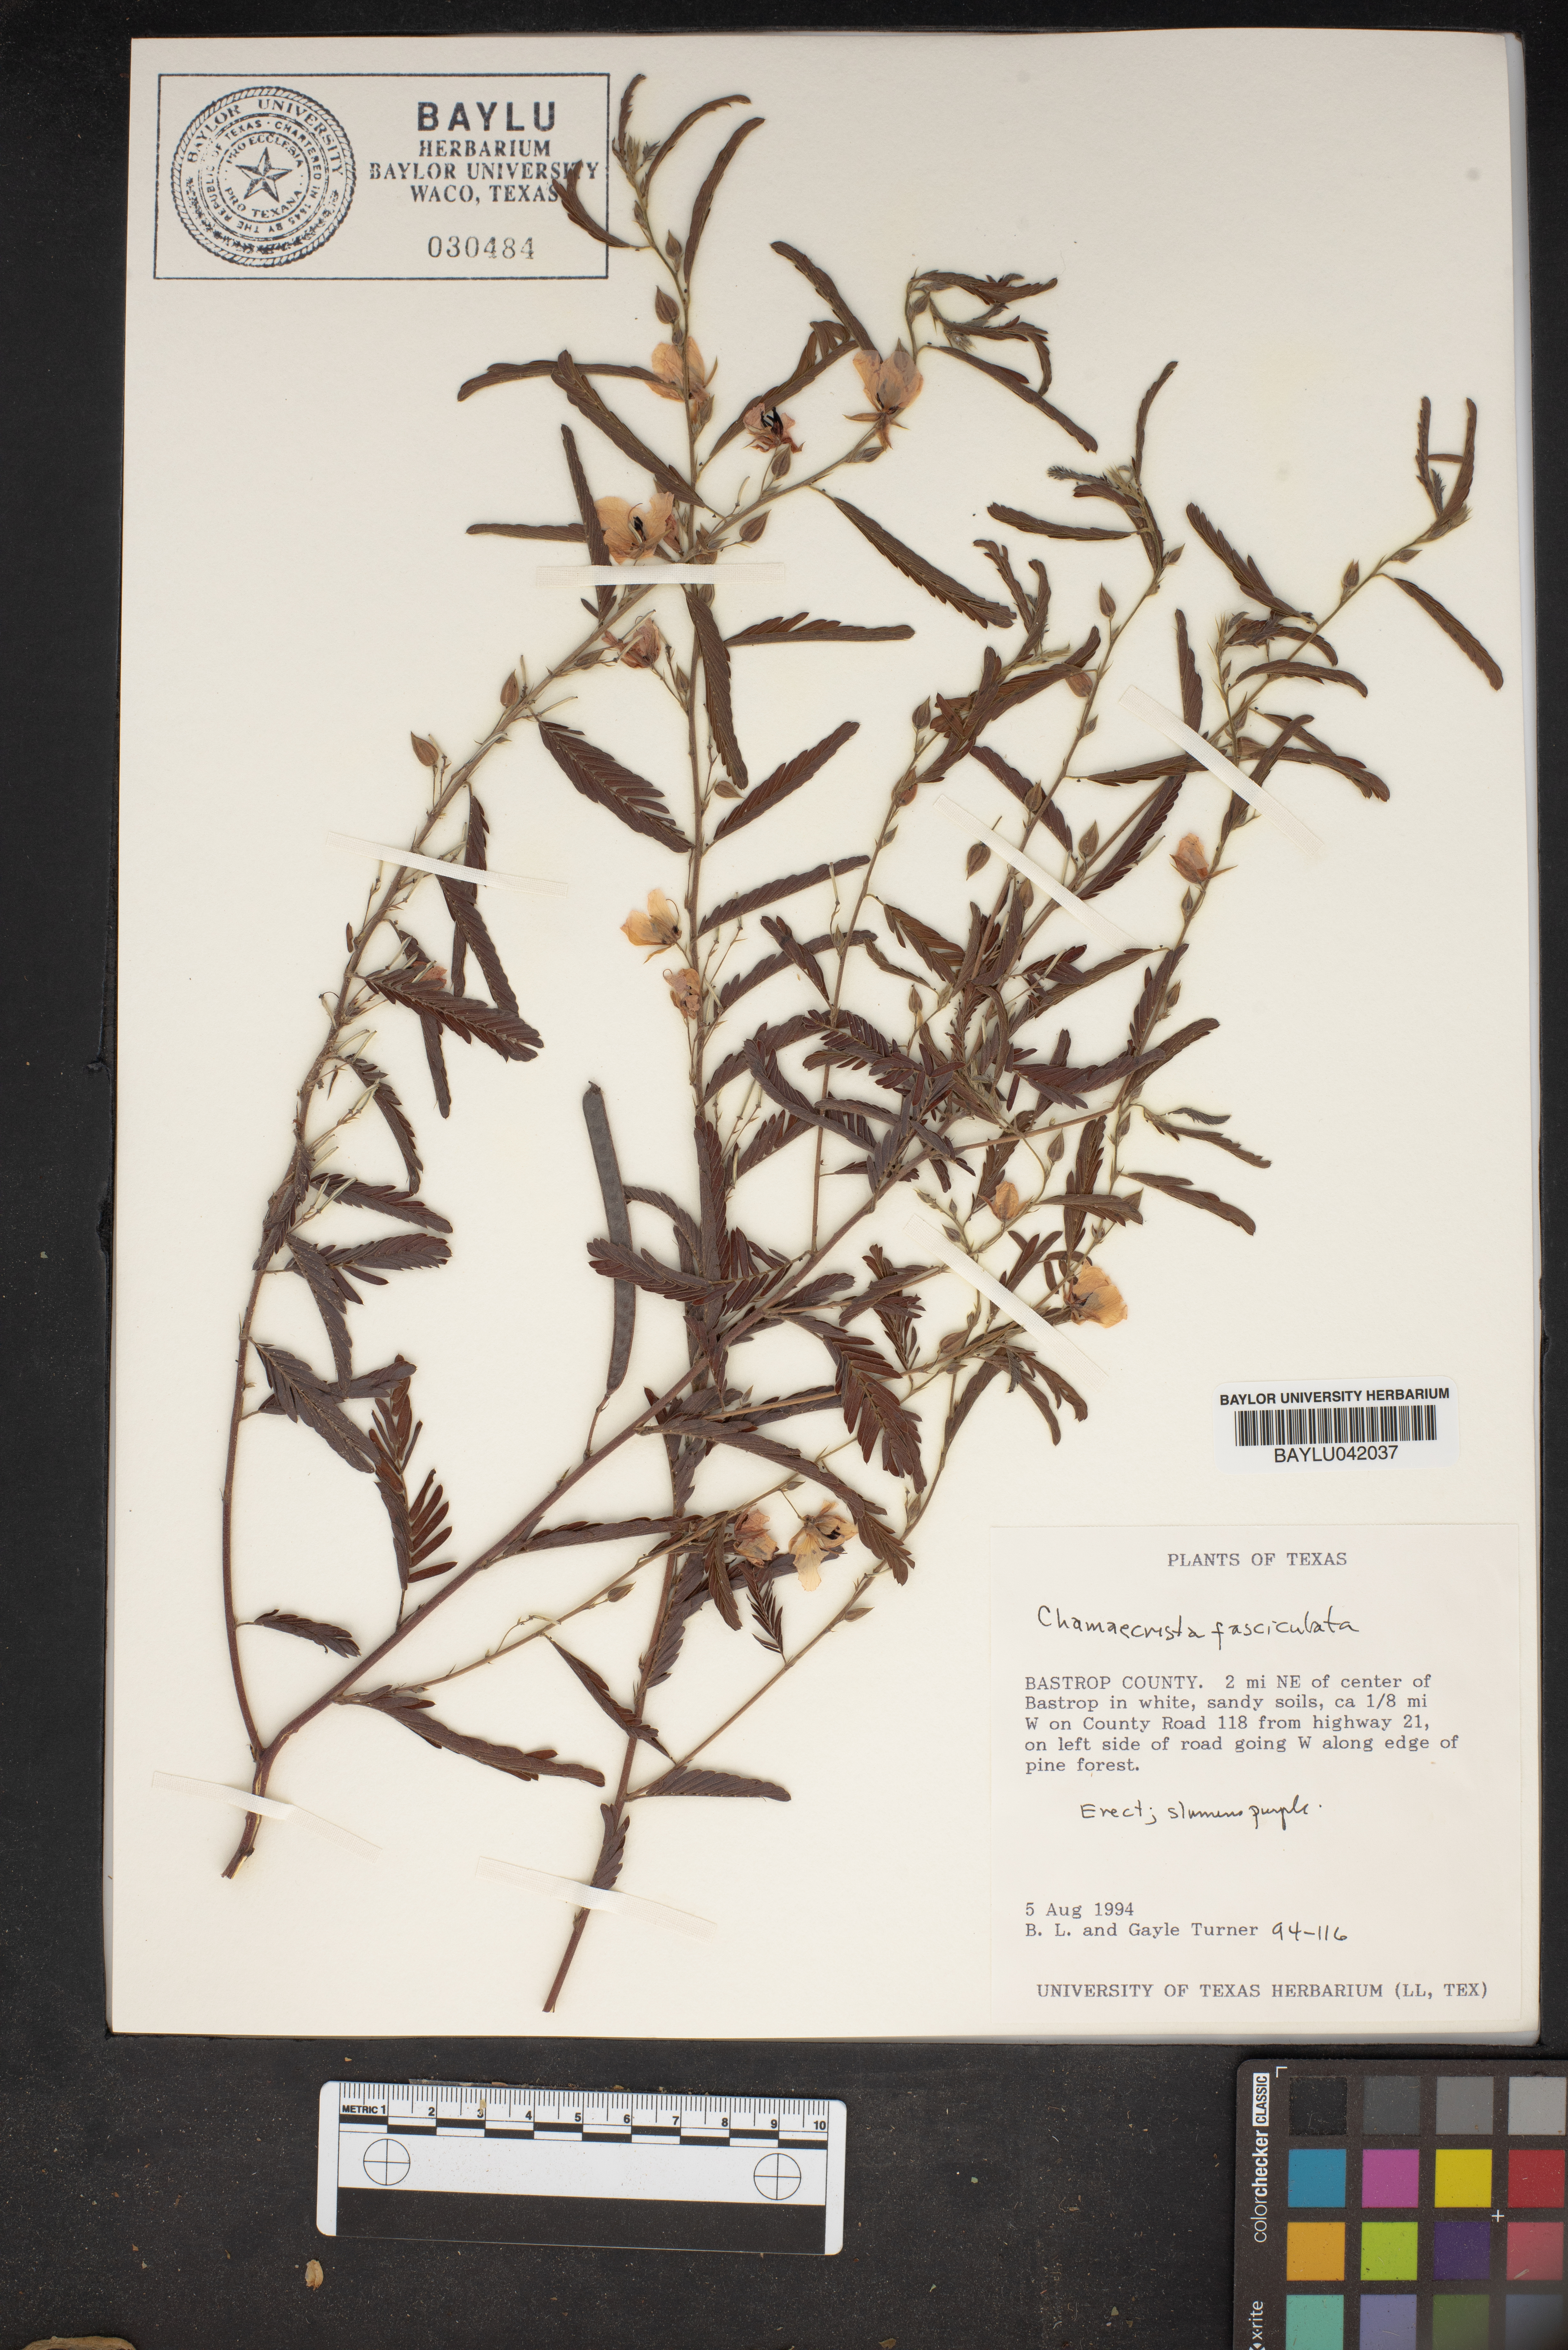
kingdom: Plantae
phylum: Tracheophyta
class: Magnoliopsida
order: Fabales
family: Fabaceae
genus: Chamaecrista
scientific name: Chamaecrista fasciculata
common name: Golden cassia
